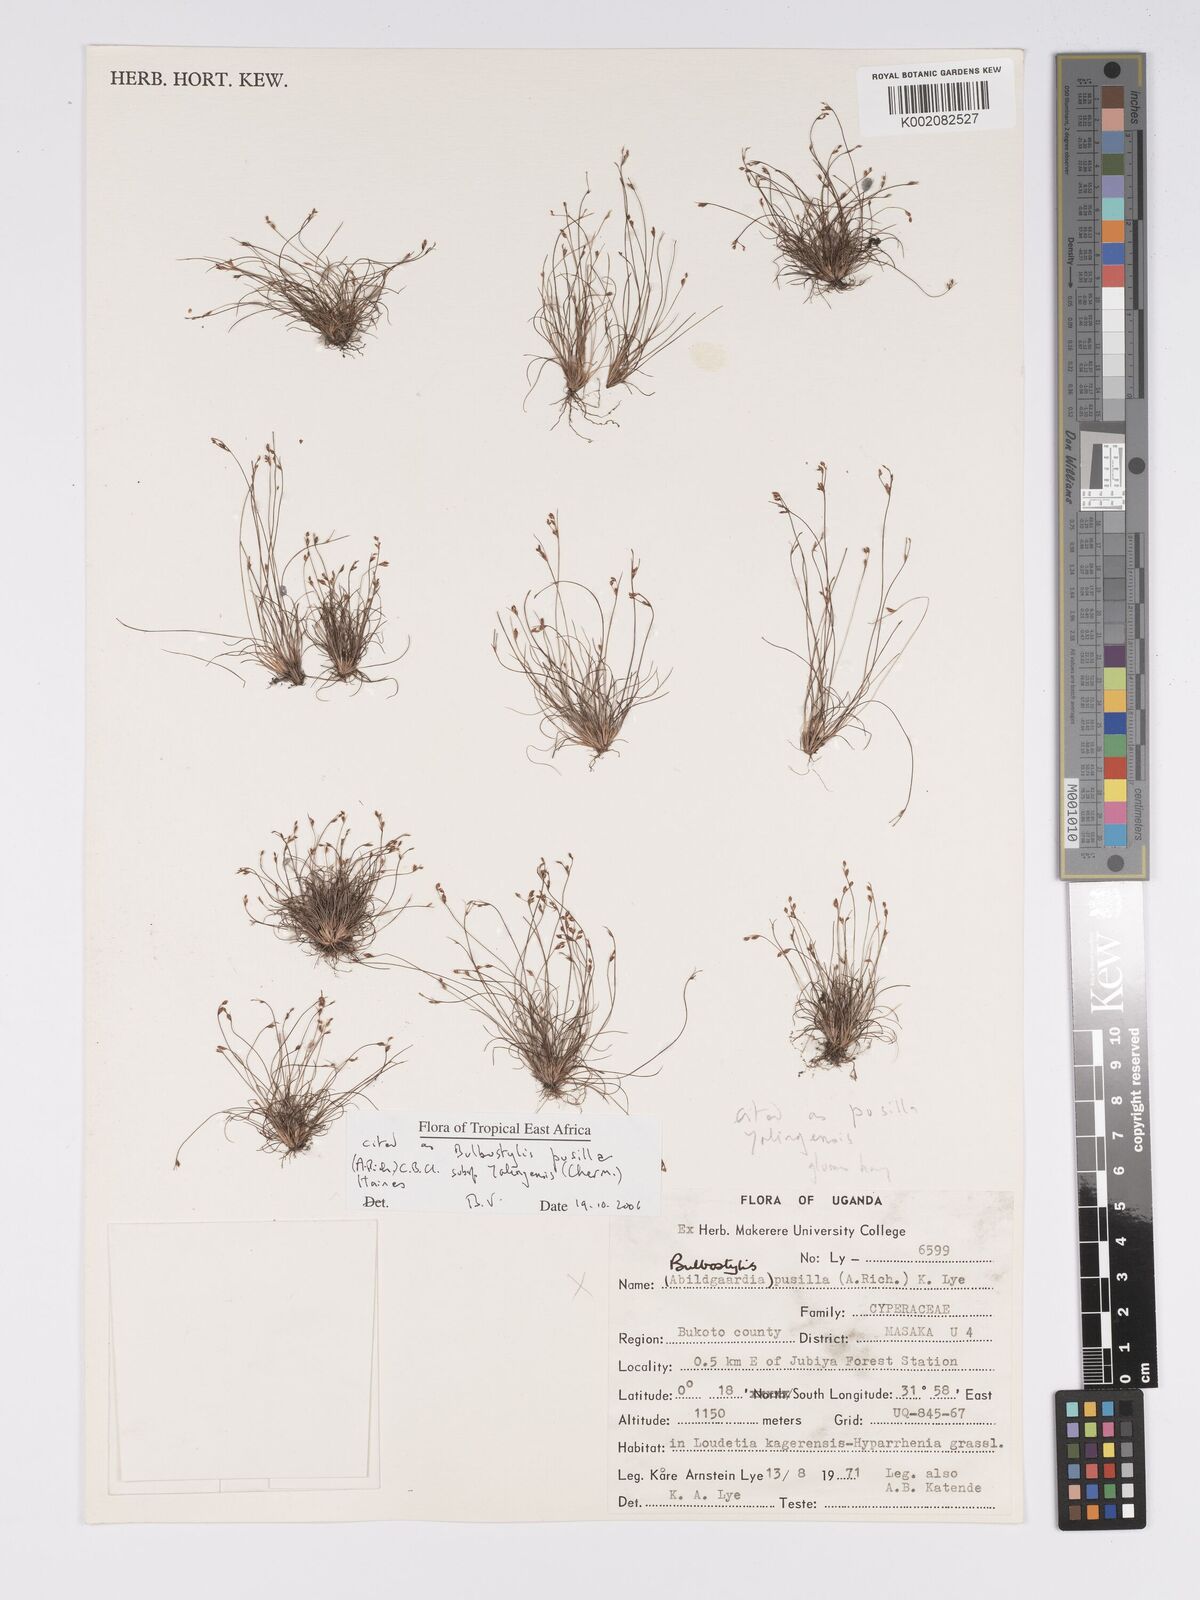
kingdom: Plantae
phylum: Tracheophyta
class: Liliopsida
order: Poales
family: Cyperaceae
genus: Bulbostylis
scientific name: Bulbostylis pusilla
